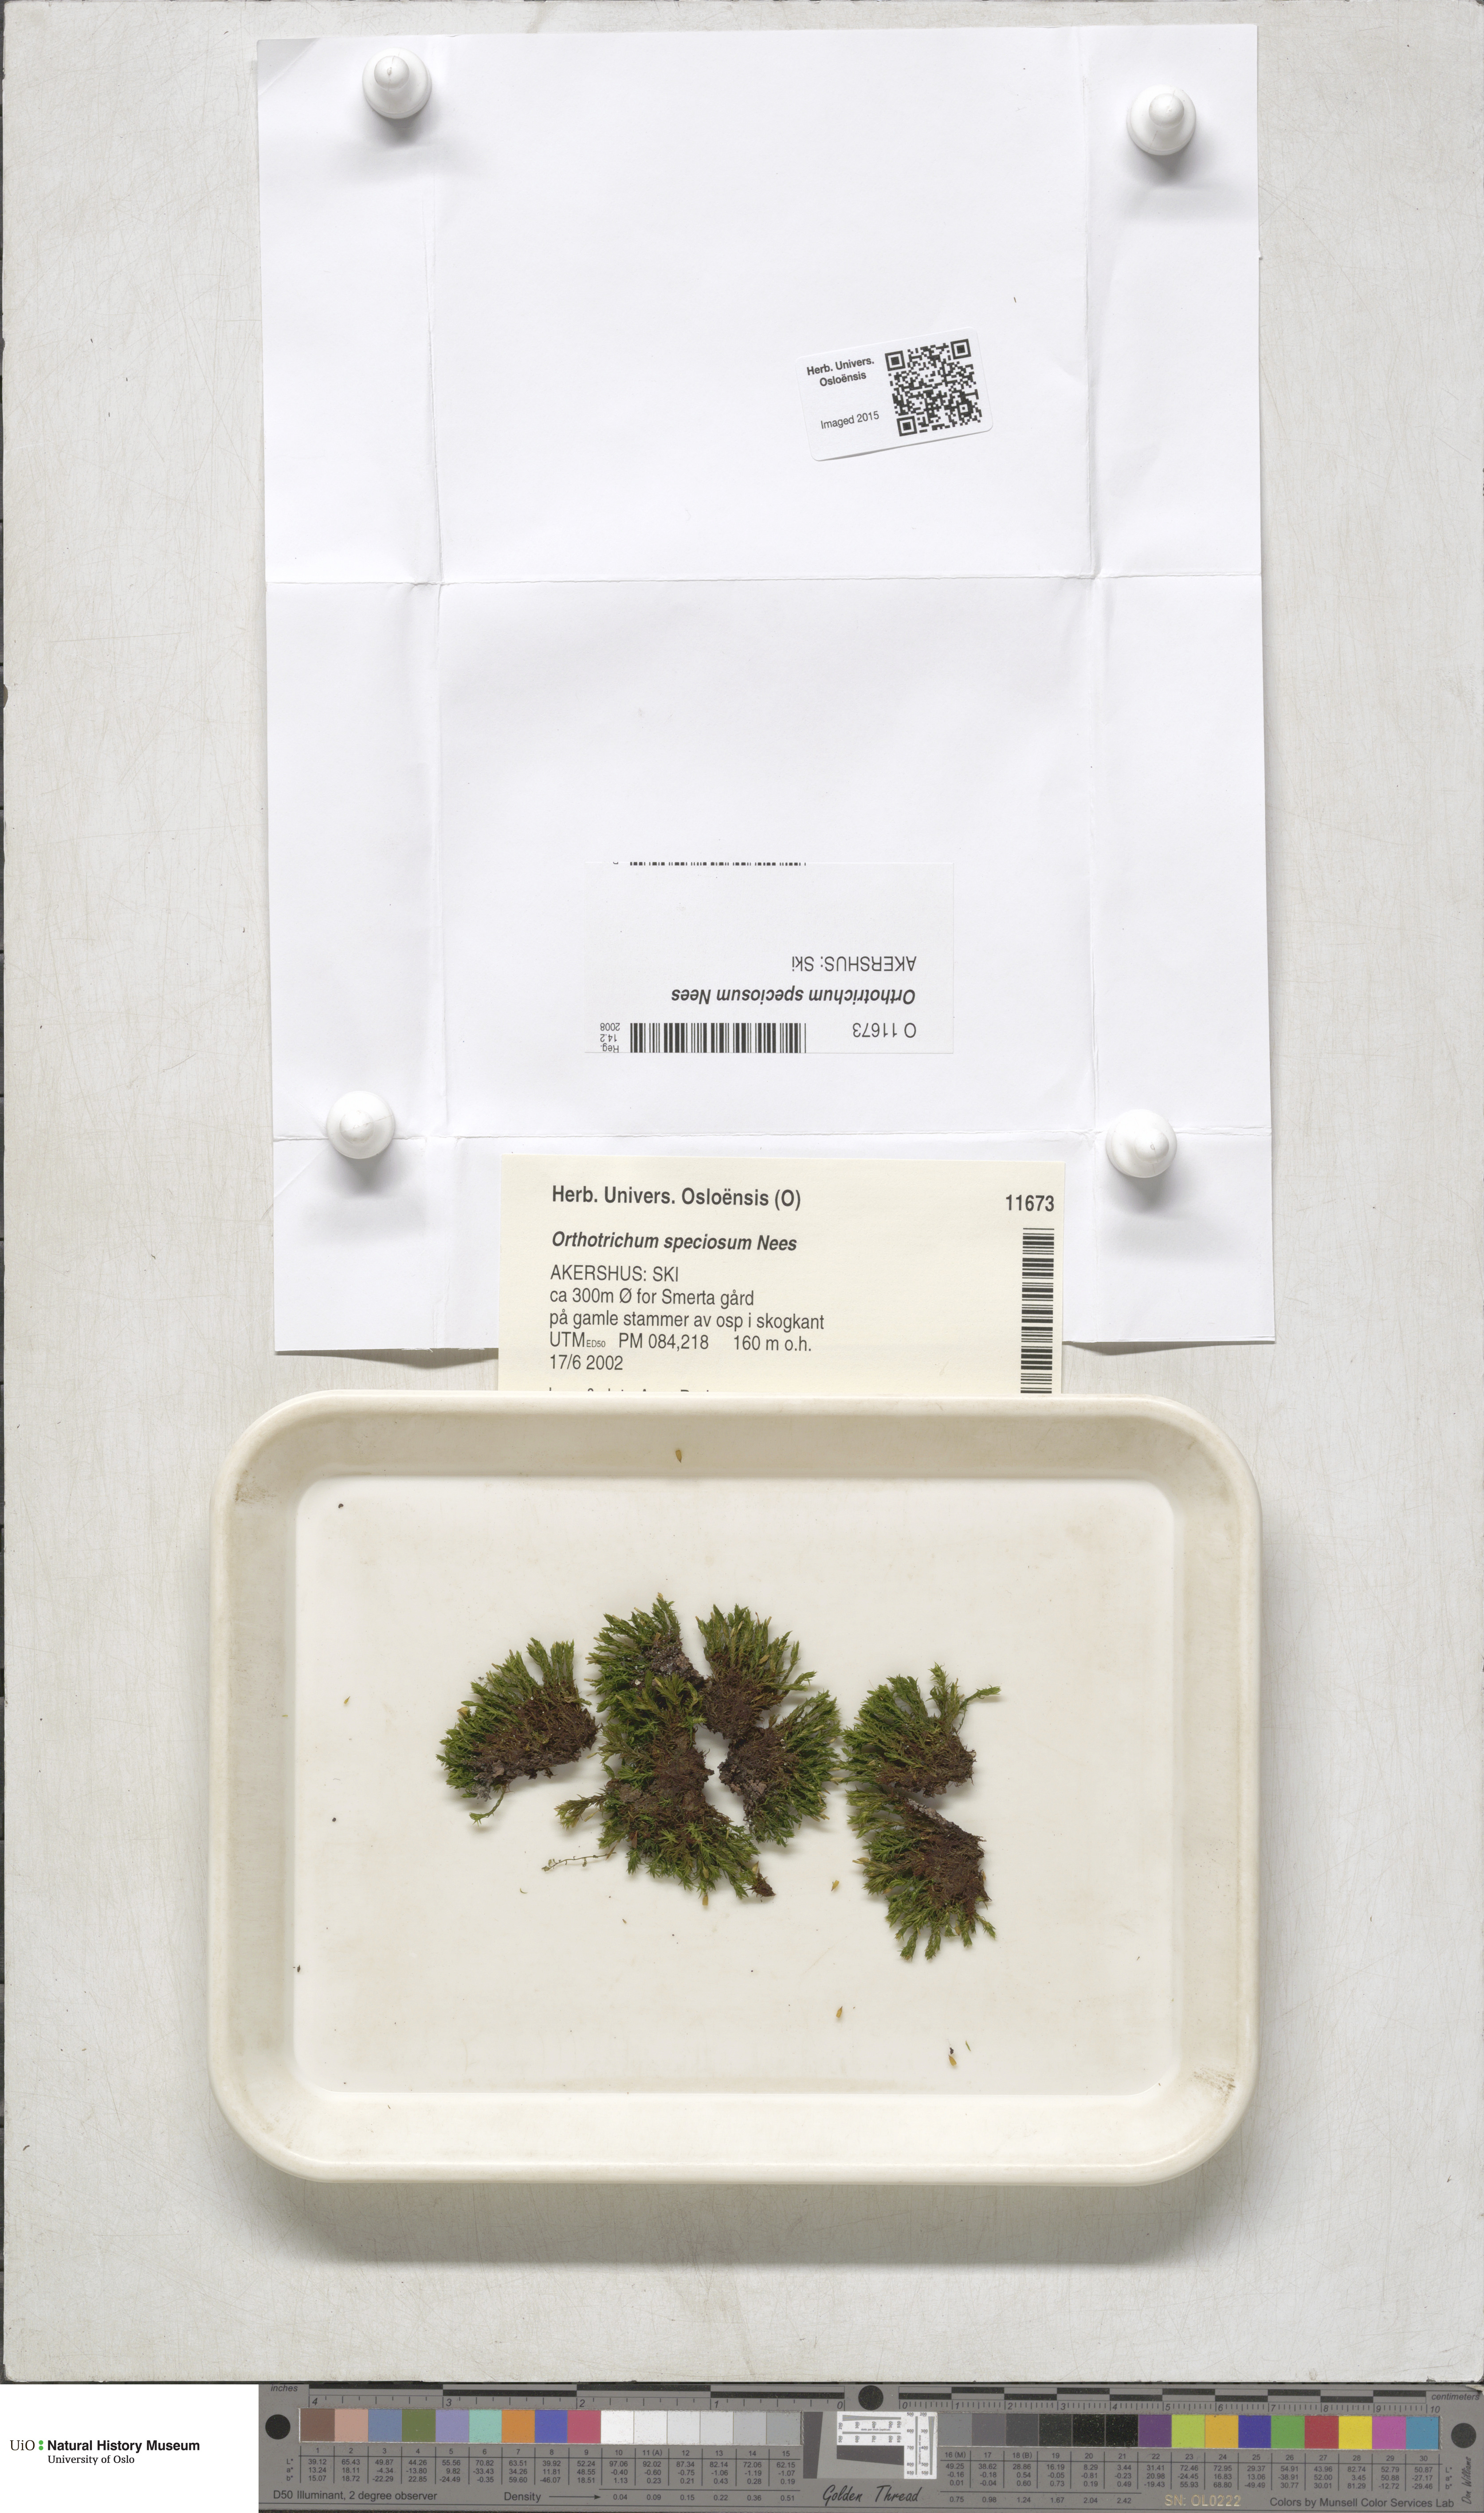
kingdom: Plantae
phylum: Bryophyta
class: Bryopsida
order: Orthotrichales
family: Orthotrichaceae
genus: Lewinskya
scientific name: Lewinskya speciosa
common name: Showy bristle moss
